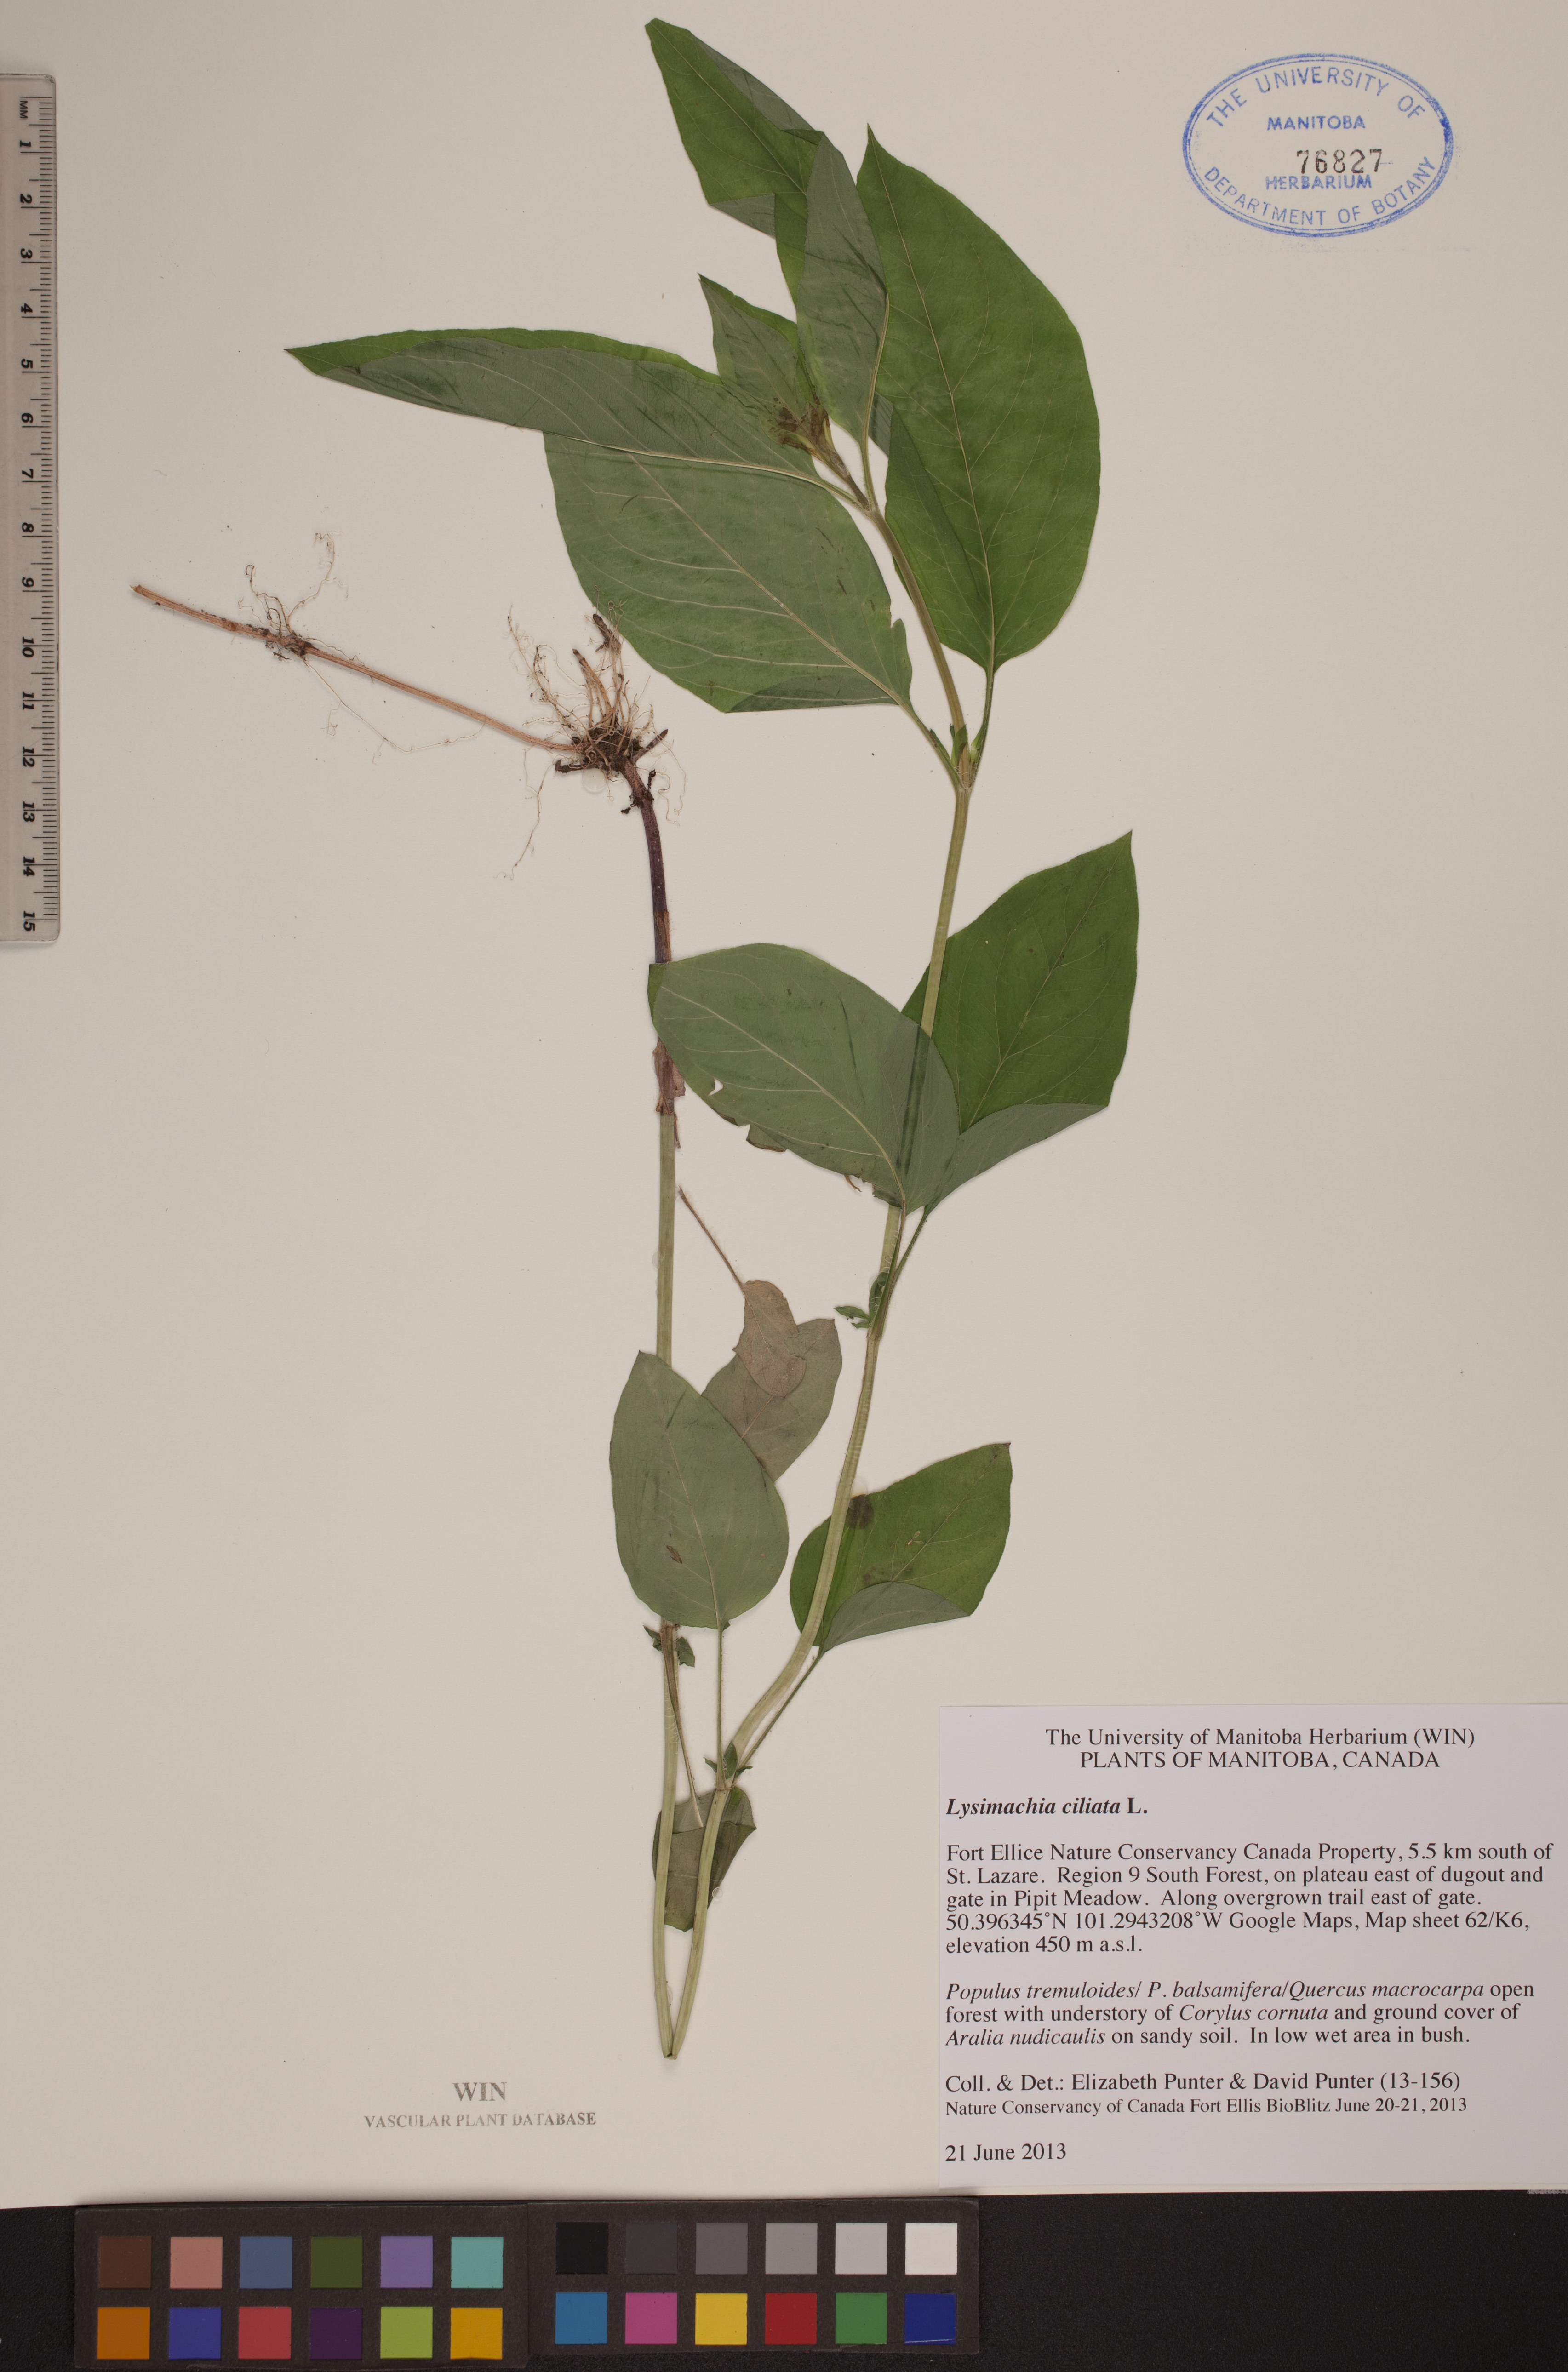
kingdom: Plantae
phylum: Tracheophyta
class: Magnoliopsida
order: Ericales
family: Primulaceae
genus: Lysimachia
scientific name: Lysimachia ciliata
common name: Fringed loosestrife
